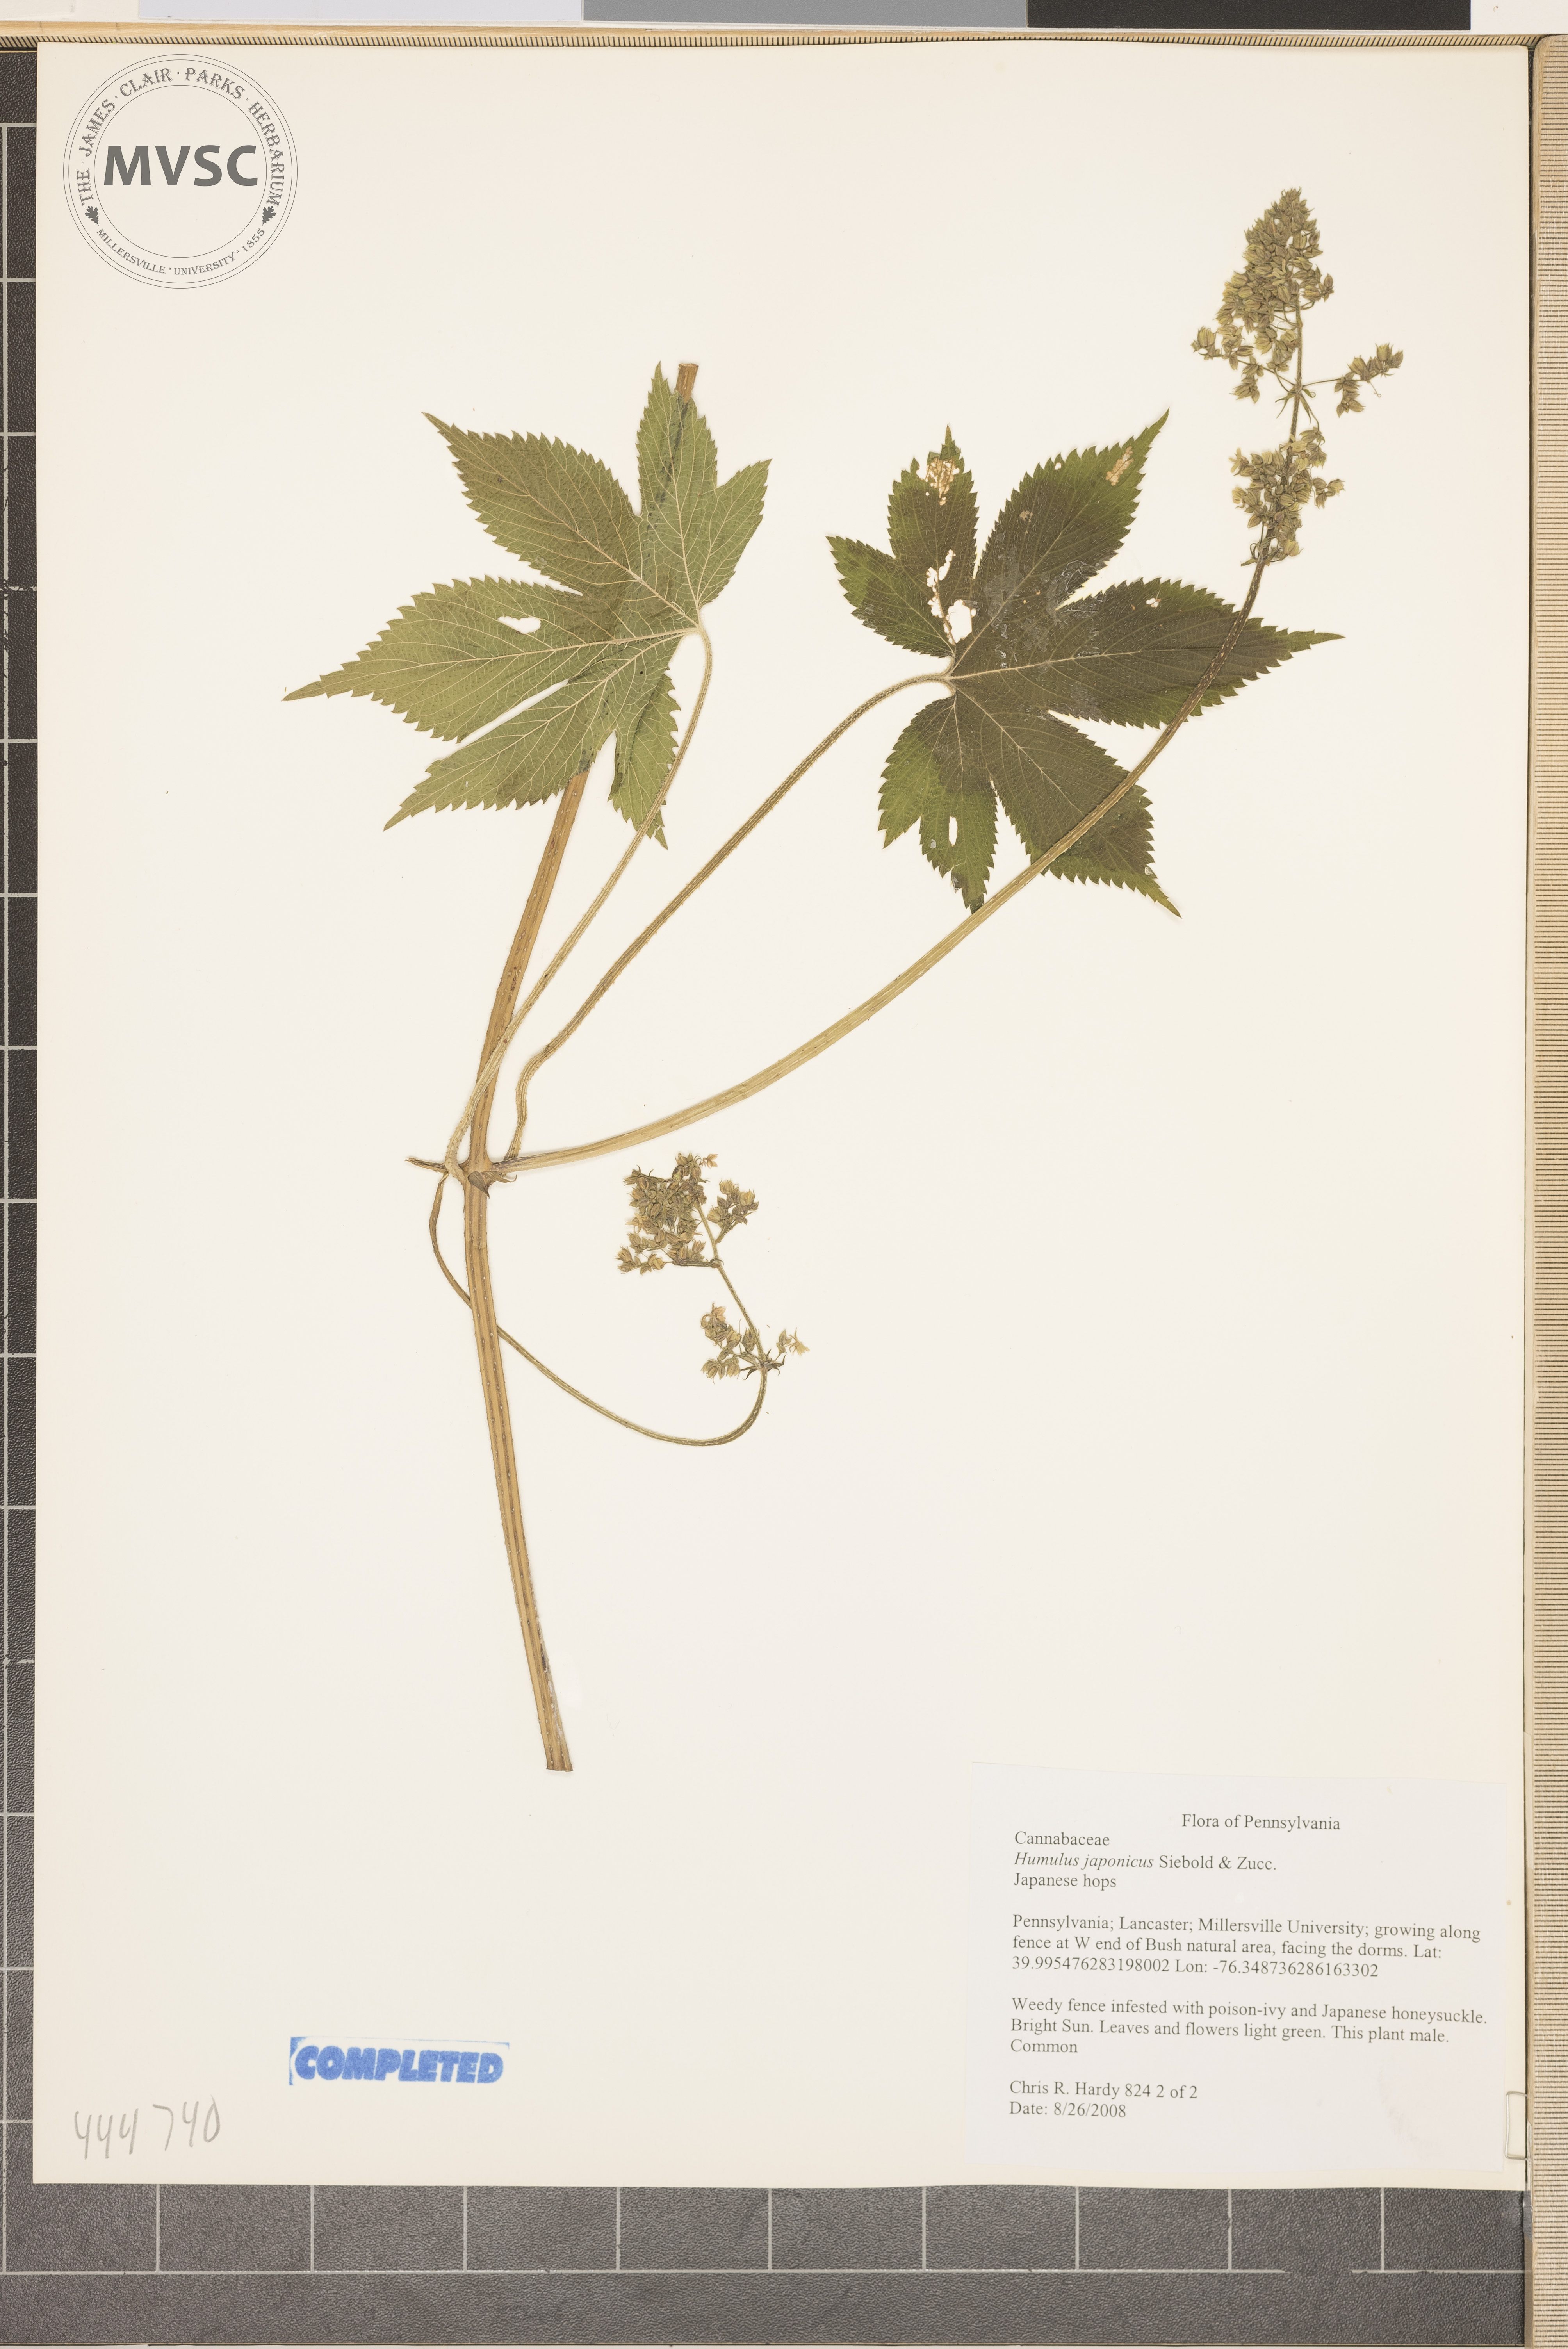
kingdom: Plantae
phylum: Tracheophyta
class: Magnoliopsida
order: Rosales
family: Cannabaceae
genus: Humulus
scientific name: Humulus scandens
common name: Japanese Hops
